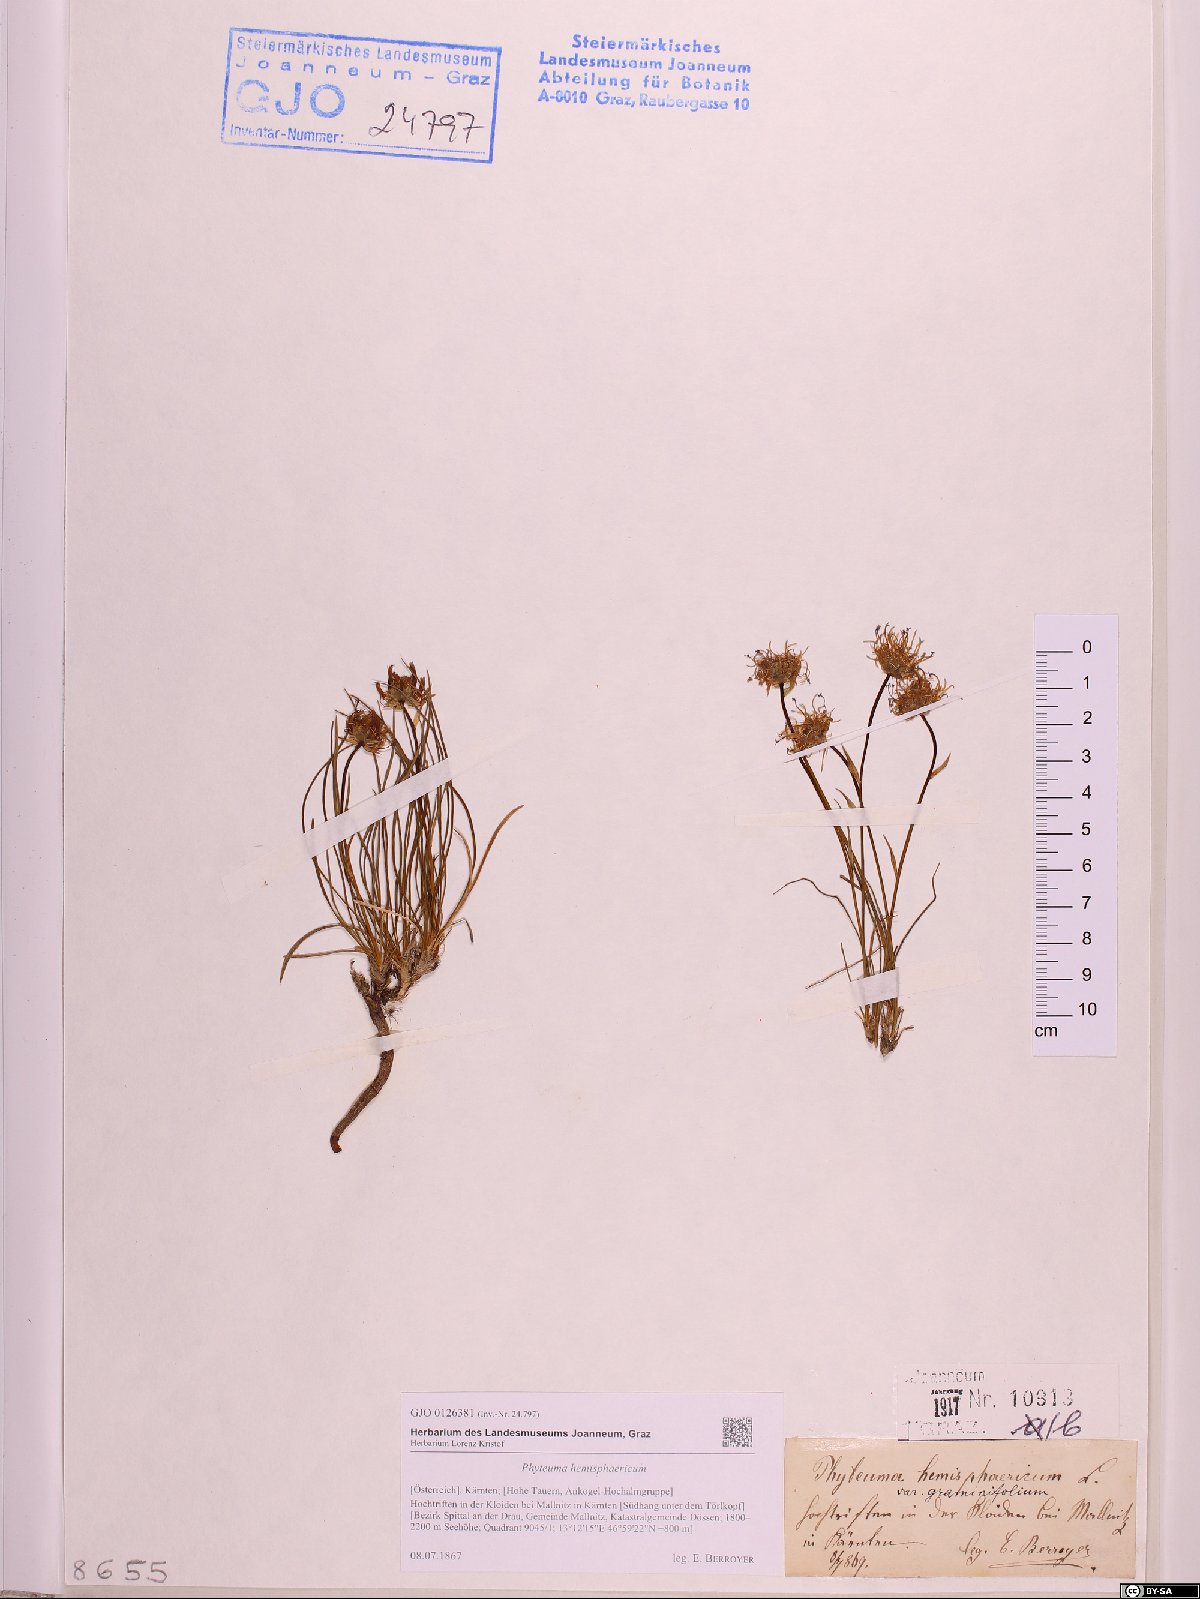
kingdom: Plantae
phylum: Tracheophyta
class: Magnoliopsida
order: Asterales
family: Campanulaceae
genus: Phyteuma
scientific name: Phyteuma hemisphaericum
